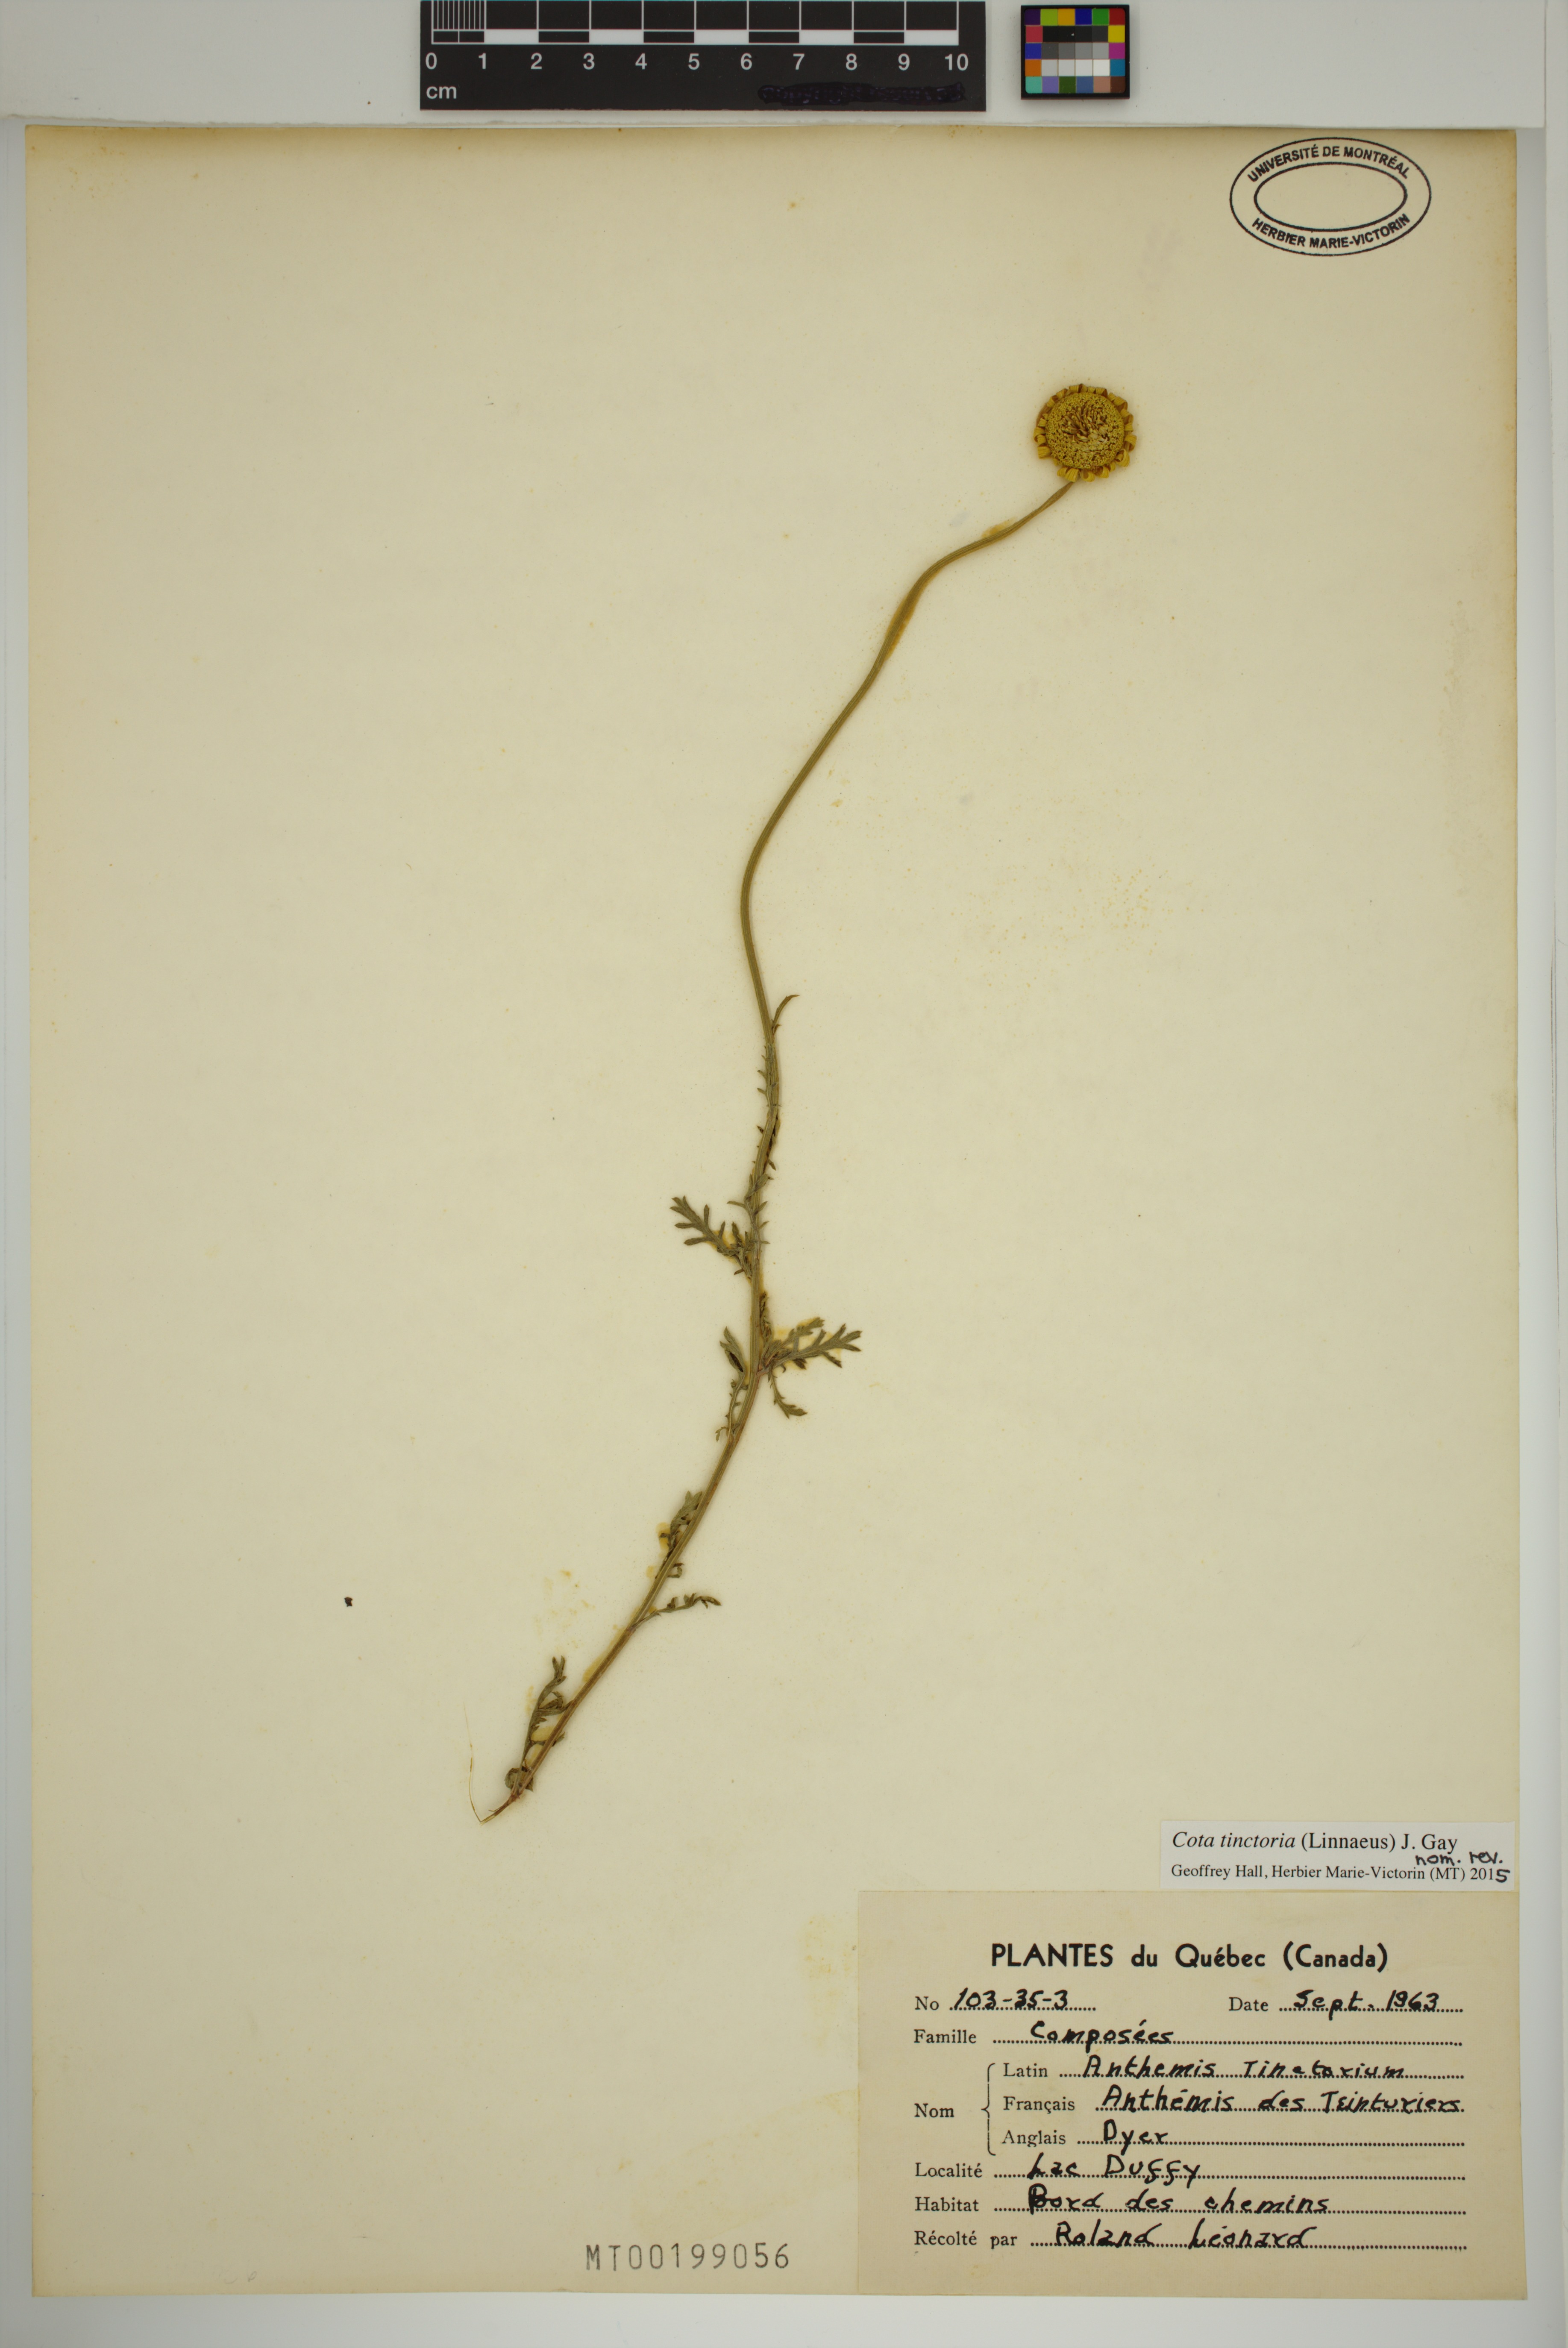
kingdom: Plantae
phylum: Tracheophyta
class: Magnoliopsida
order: Asterales
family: Asteraceae
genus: Cota
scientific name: Cota tinctoria
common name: Golden chamomile
